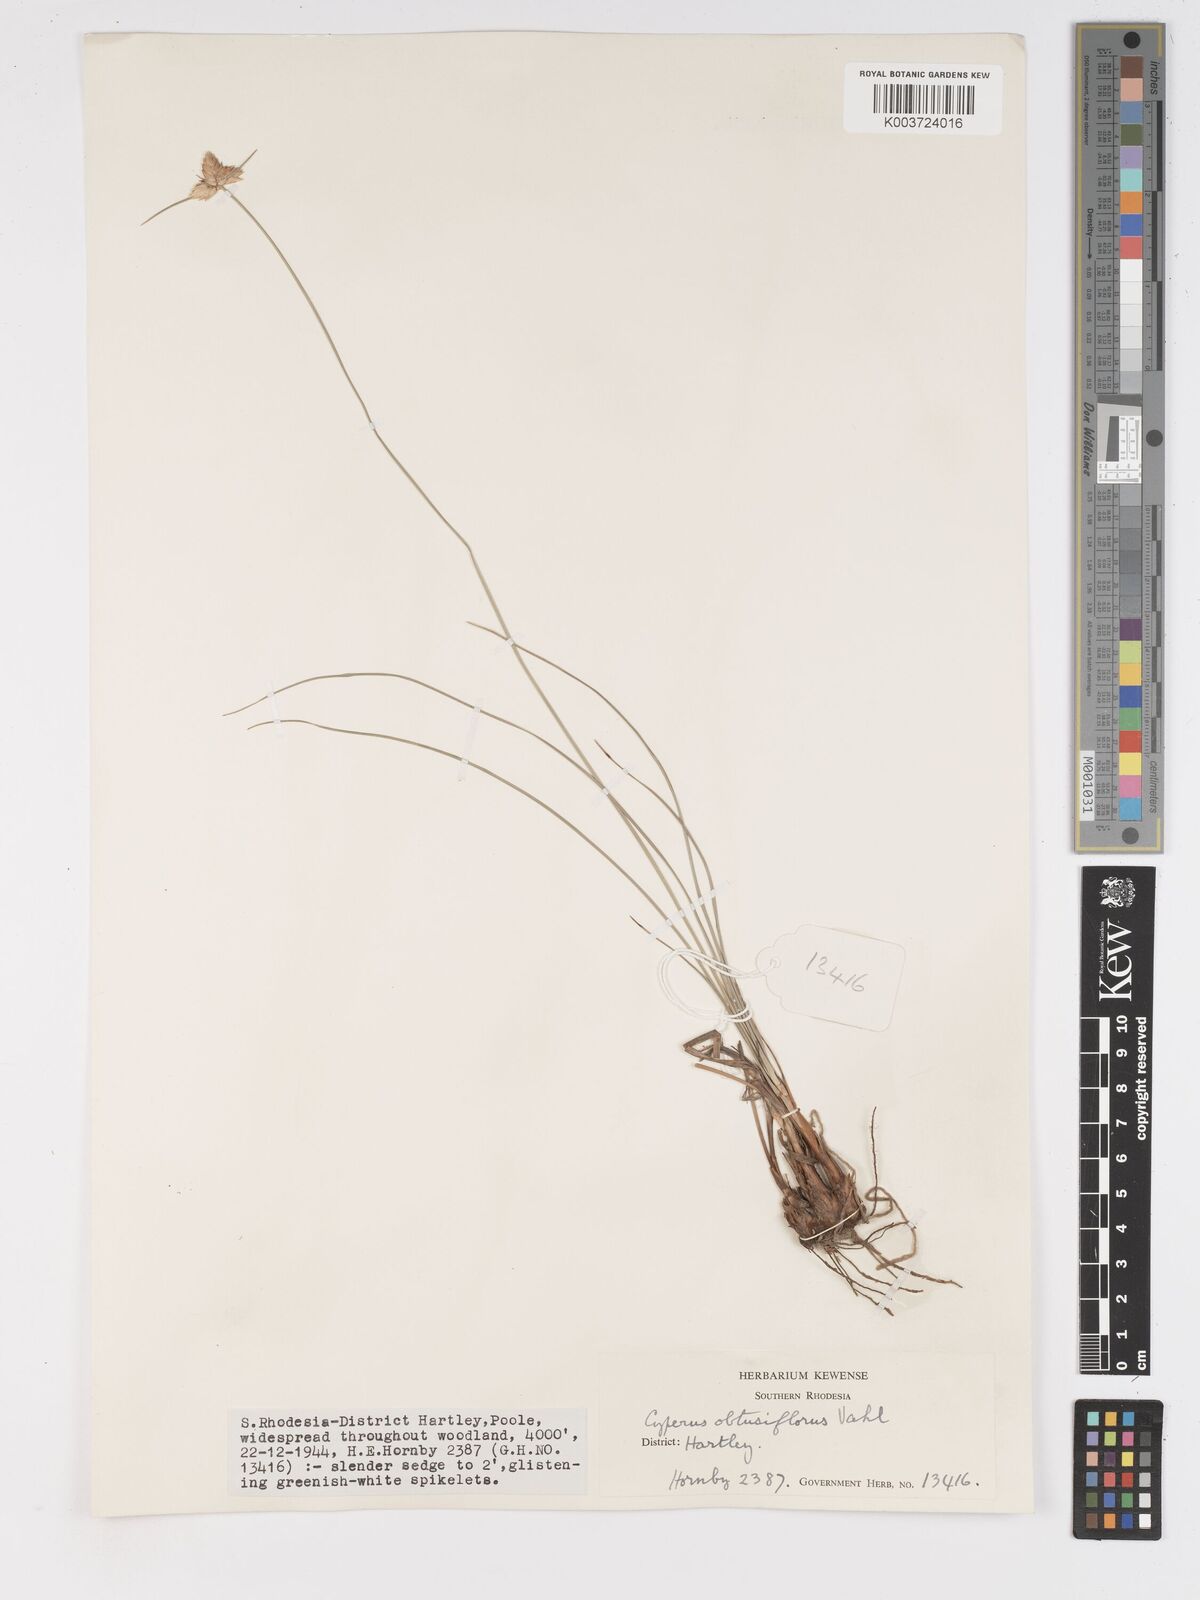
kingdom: Plantae
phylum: Tracheophyta
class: Liliopsida
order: Poales
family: Cyperaceae
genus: Cyperus
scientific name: Cyperus niveus
